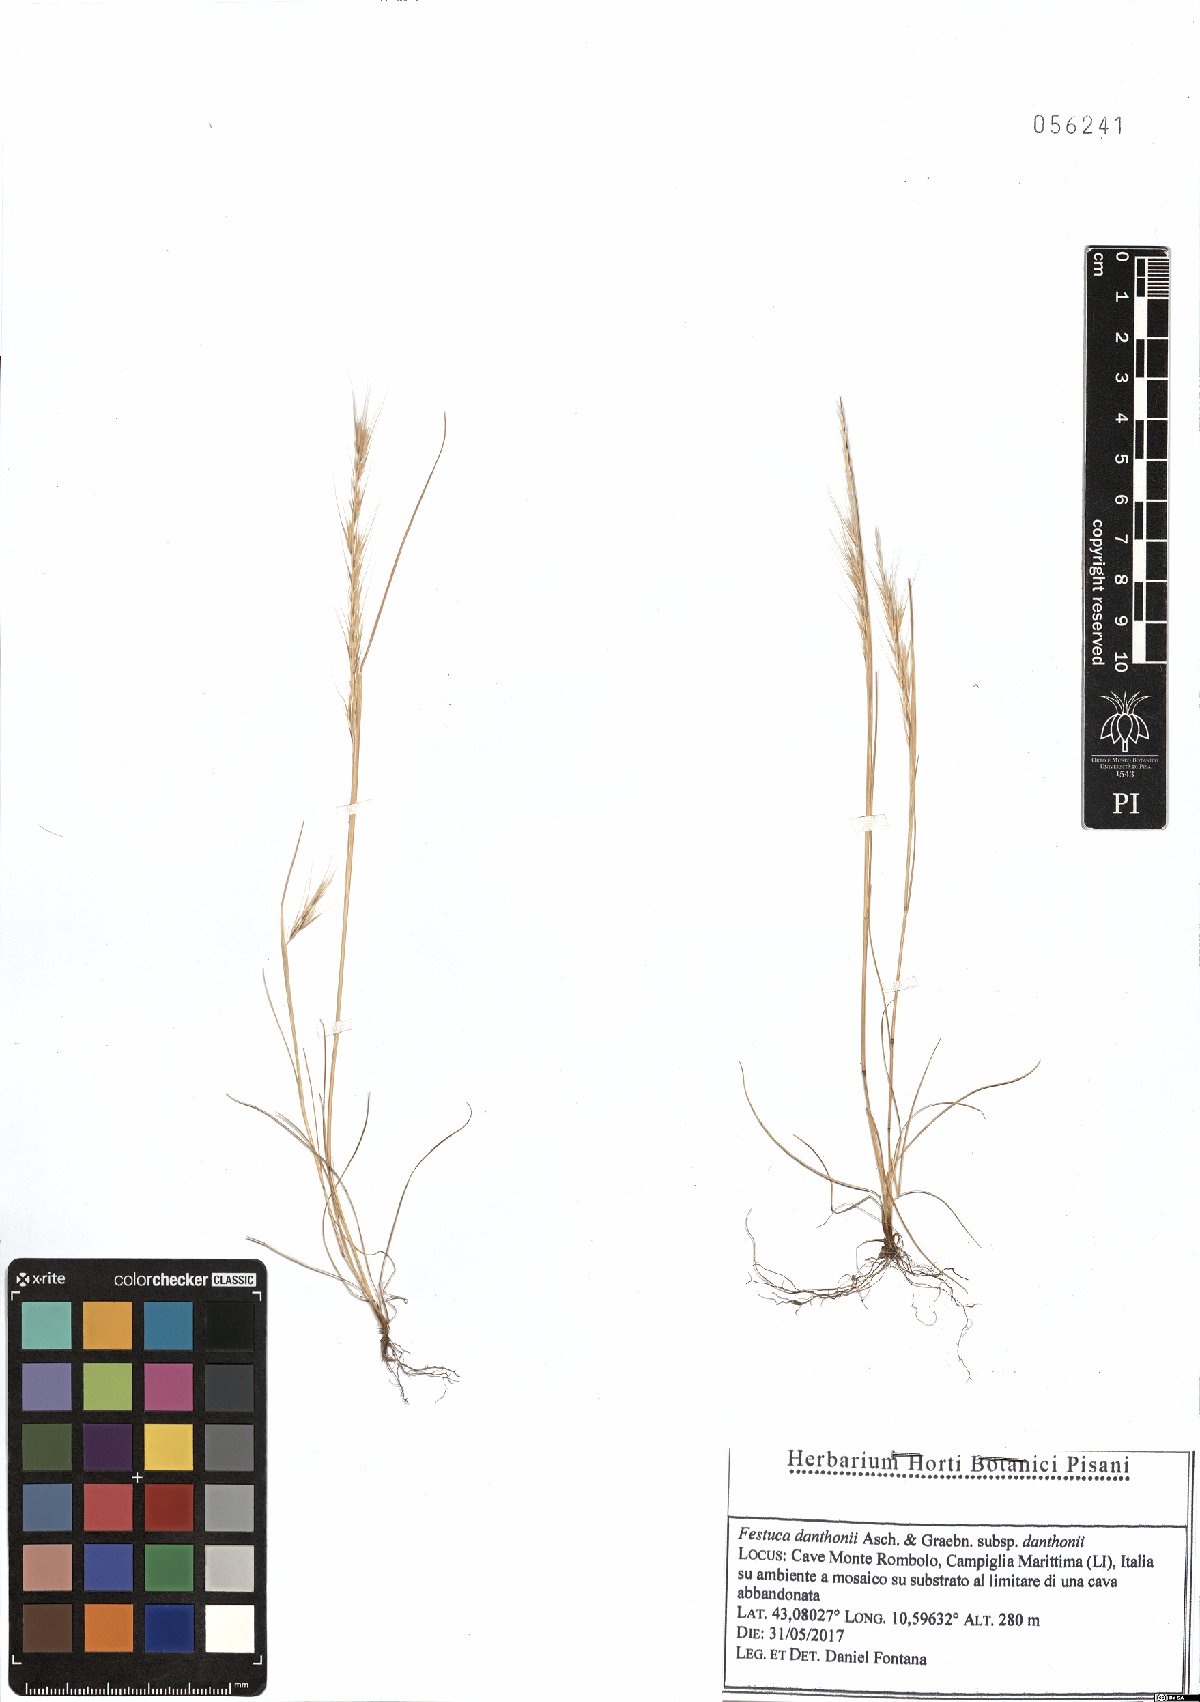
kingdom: Plantae
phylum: Tracheophyta
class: Liliopsida
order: Poales
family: Poaceae
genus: Festuca
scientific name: Festuca ambigua
